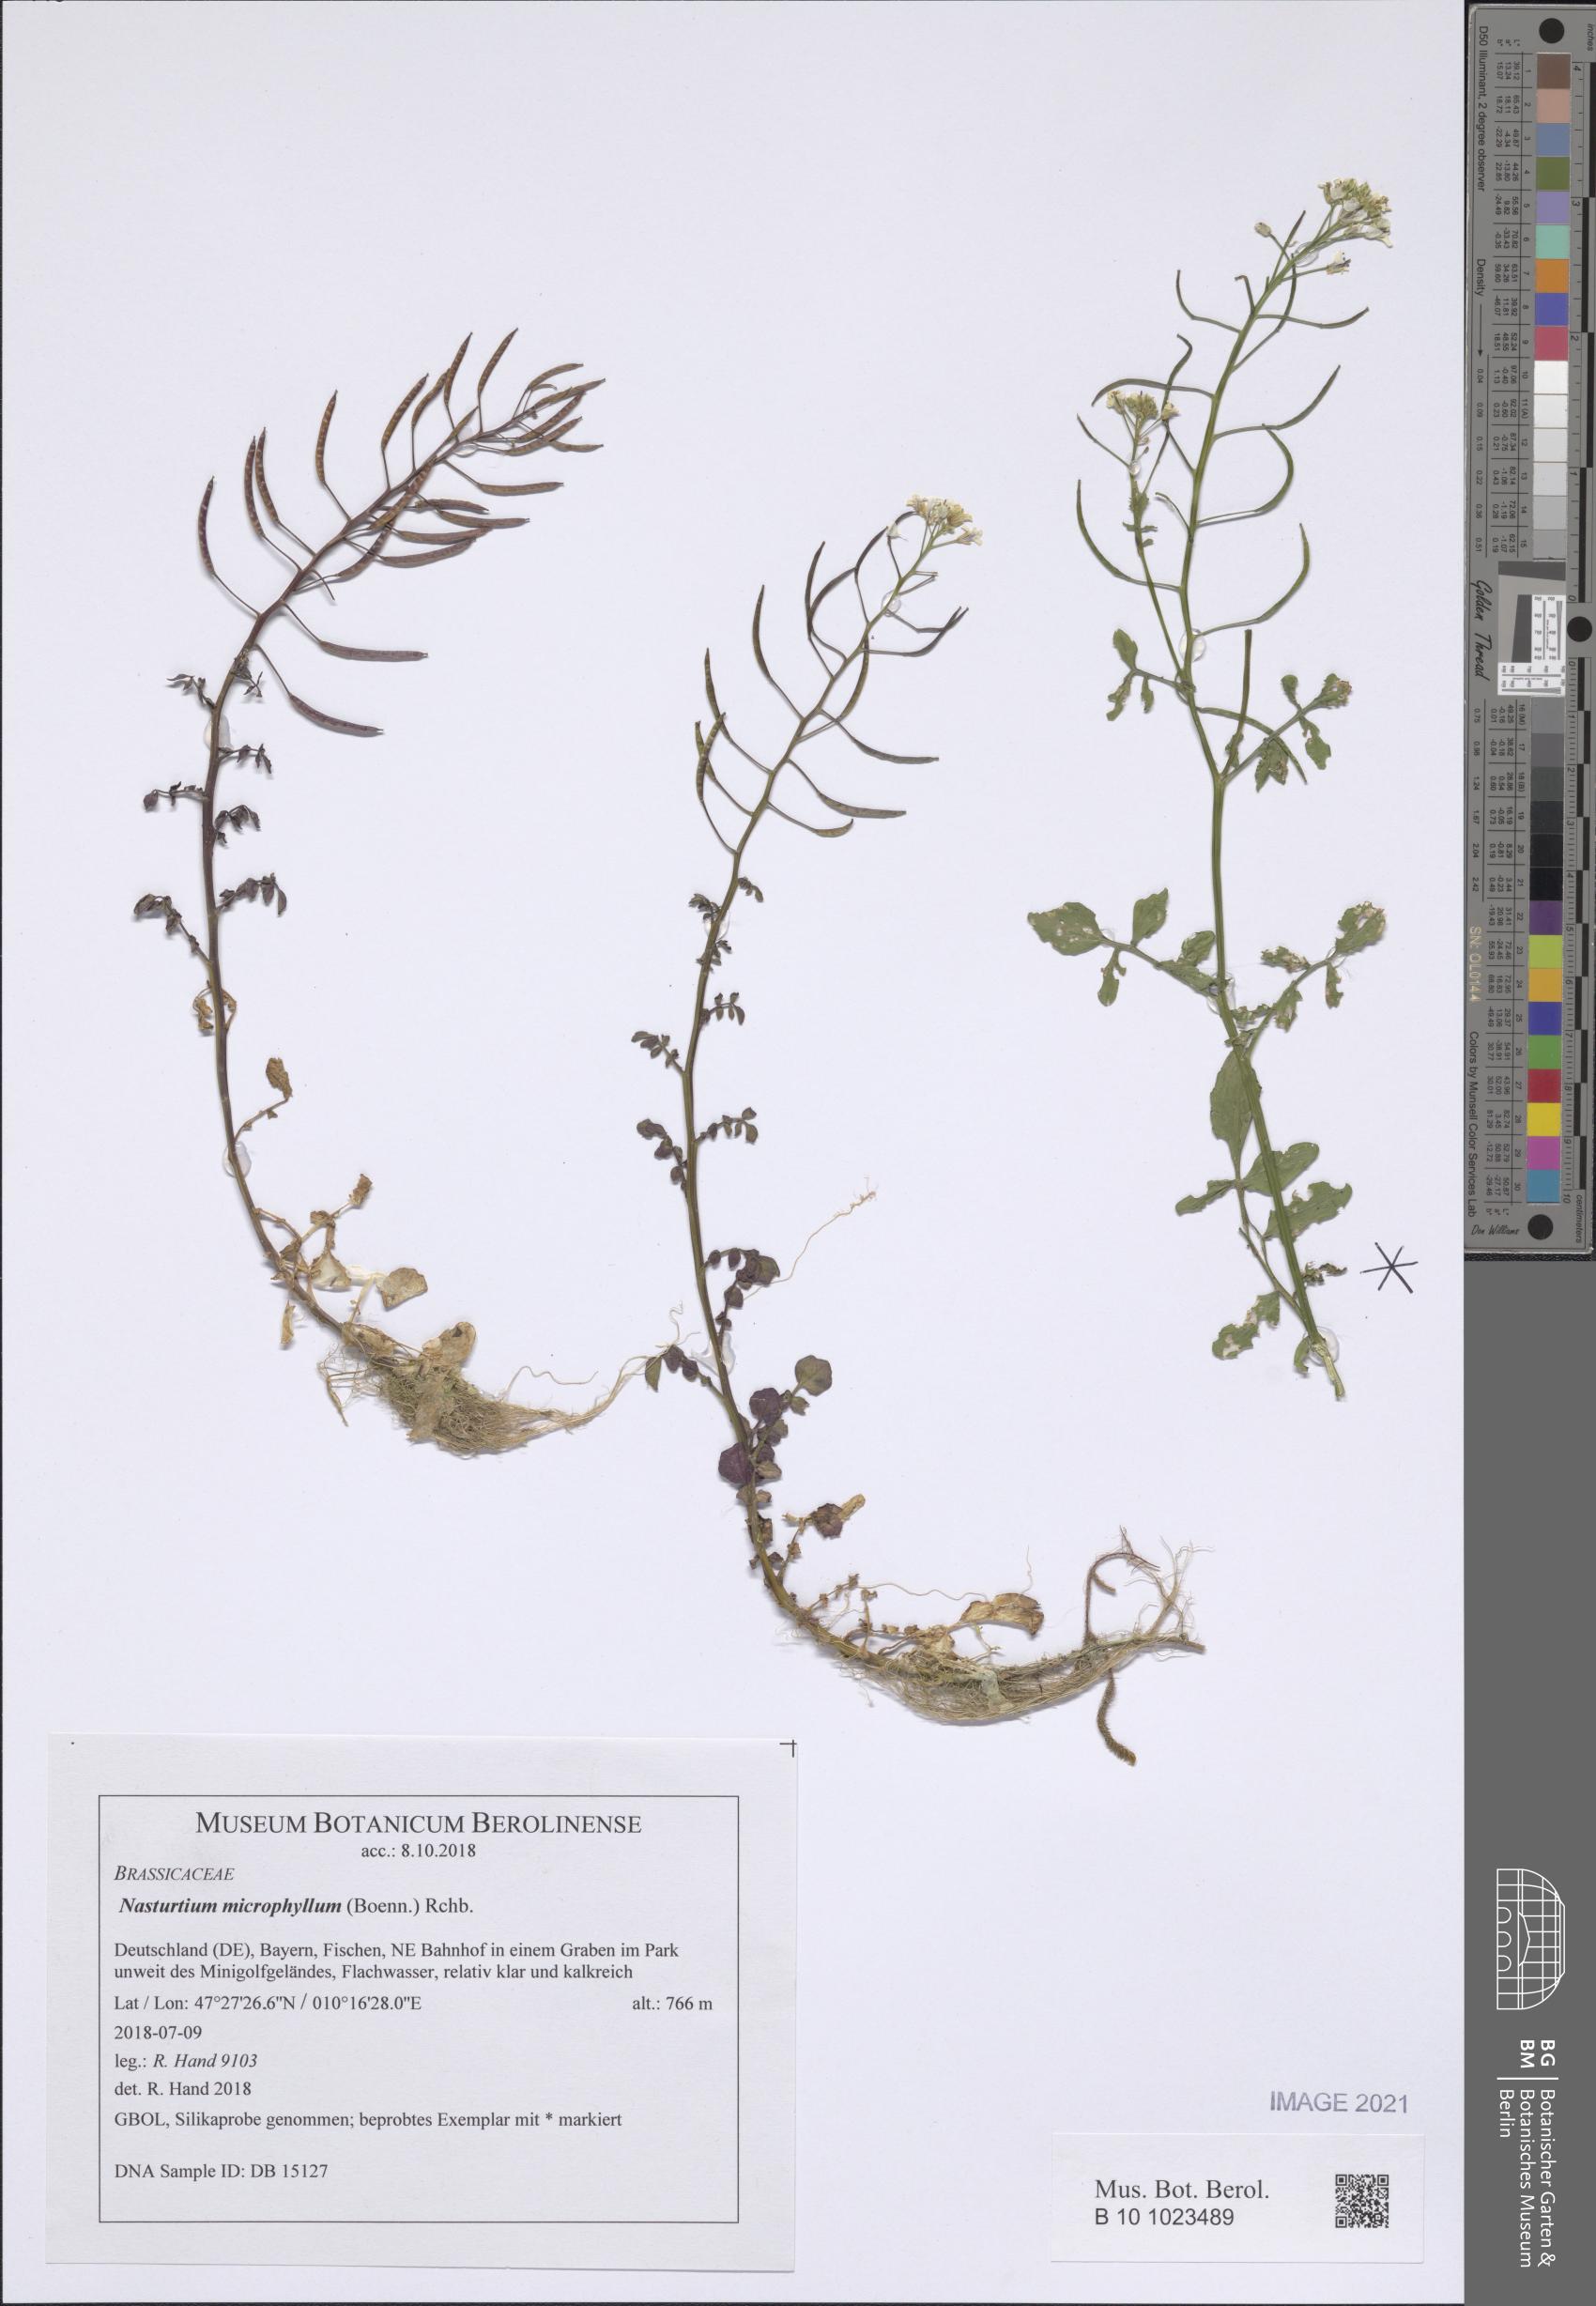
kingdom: Plantae
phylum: Tracheophyta
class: Magnoliopsida
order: Brassicales
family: Brassicaceae
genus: Nasturtium
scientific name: Nasturtium microphyllum
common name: Onerow yellowcress
